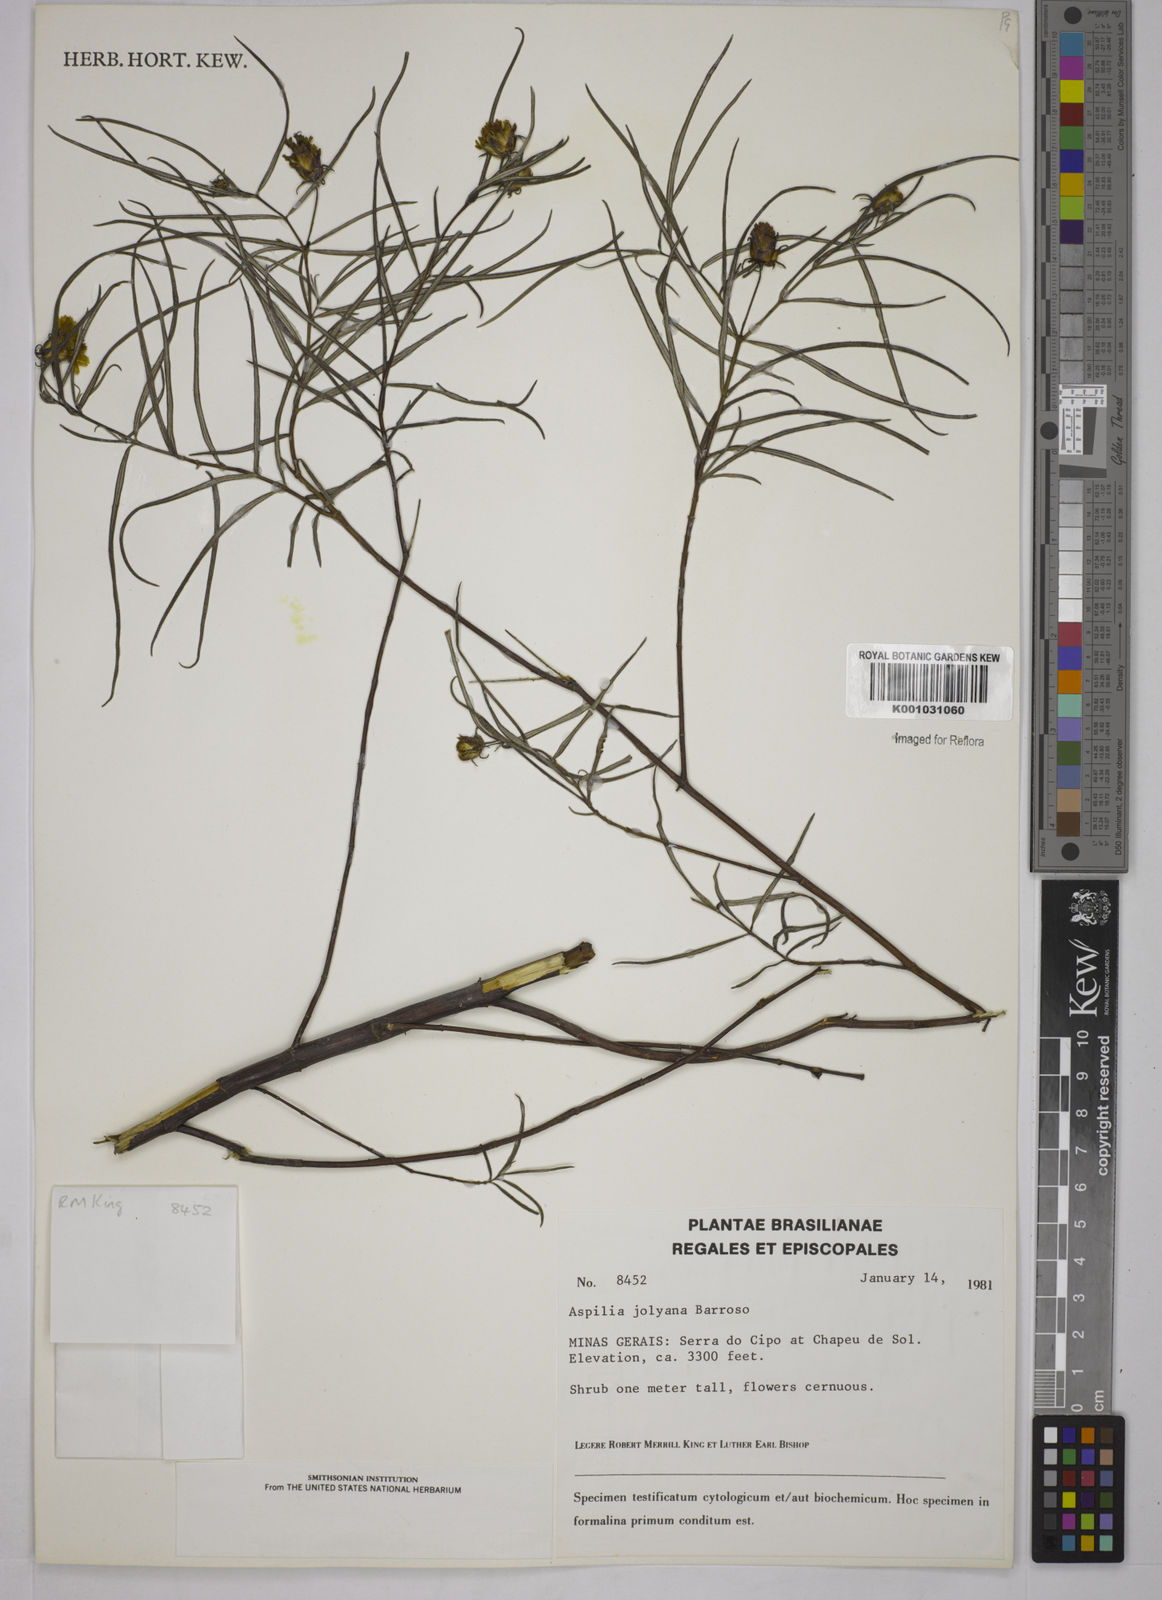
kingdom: Plantae
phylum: Tracheophyta
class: Magnoliopsida
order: Asterales
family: Asteraceae
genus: Aspilia
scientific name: Aspilia jolyana
